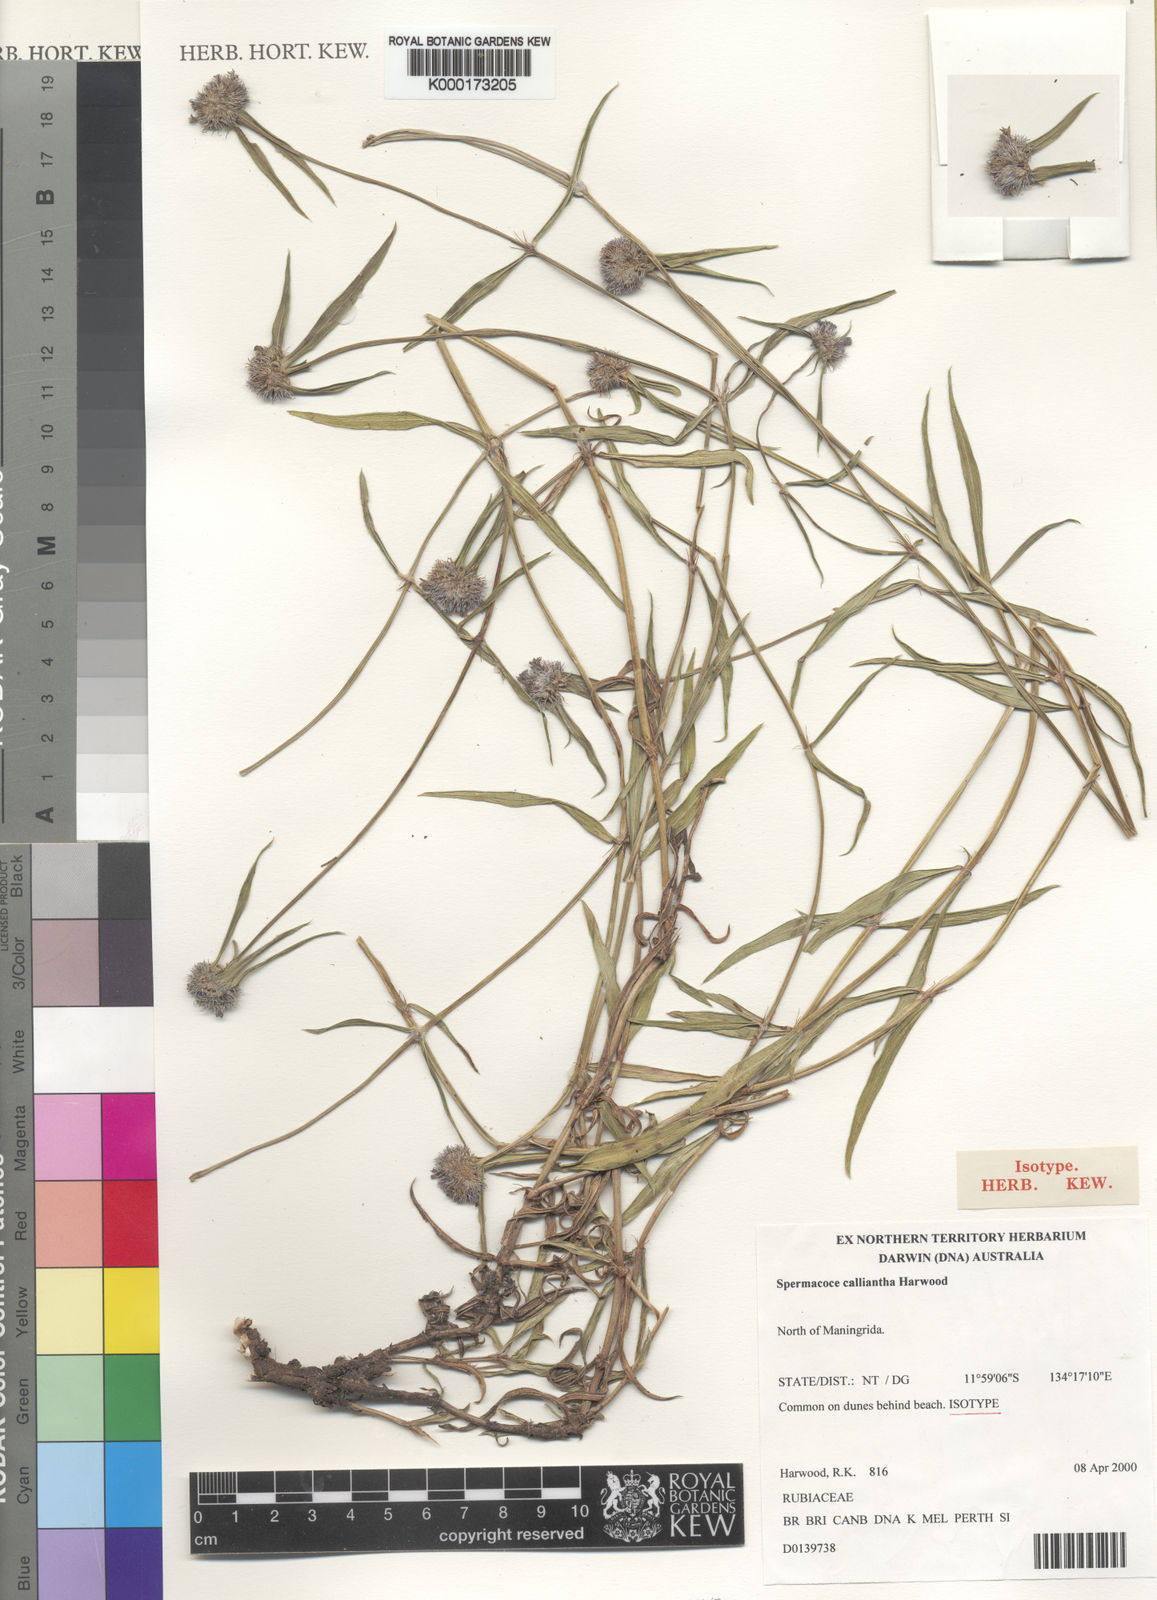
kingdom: Plantae
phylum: Tracheophyta
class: Magnoliopsida
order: Gentianales
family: Rubiaceae
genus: Spermacoce
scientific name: Spermacoce calliantha
